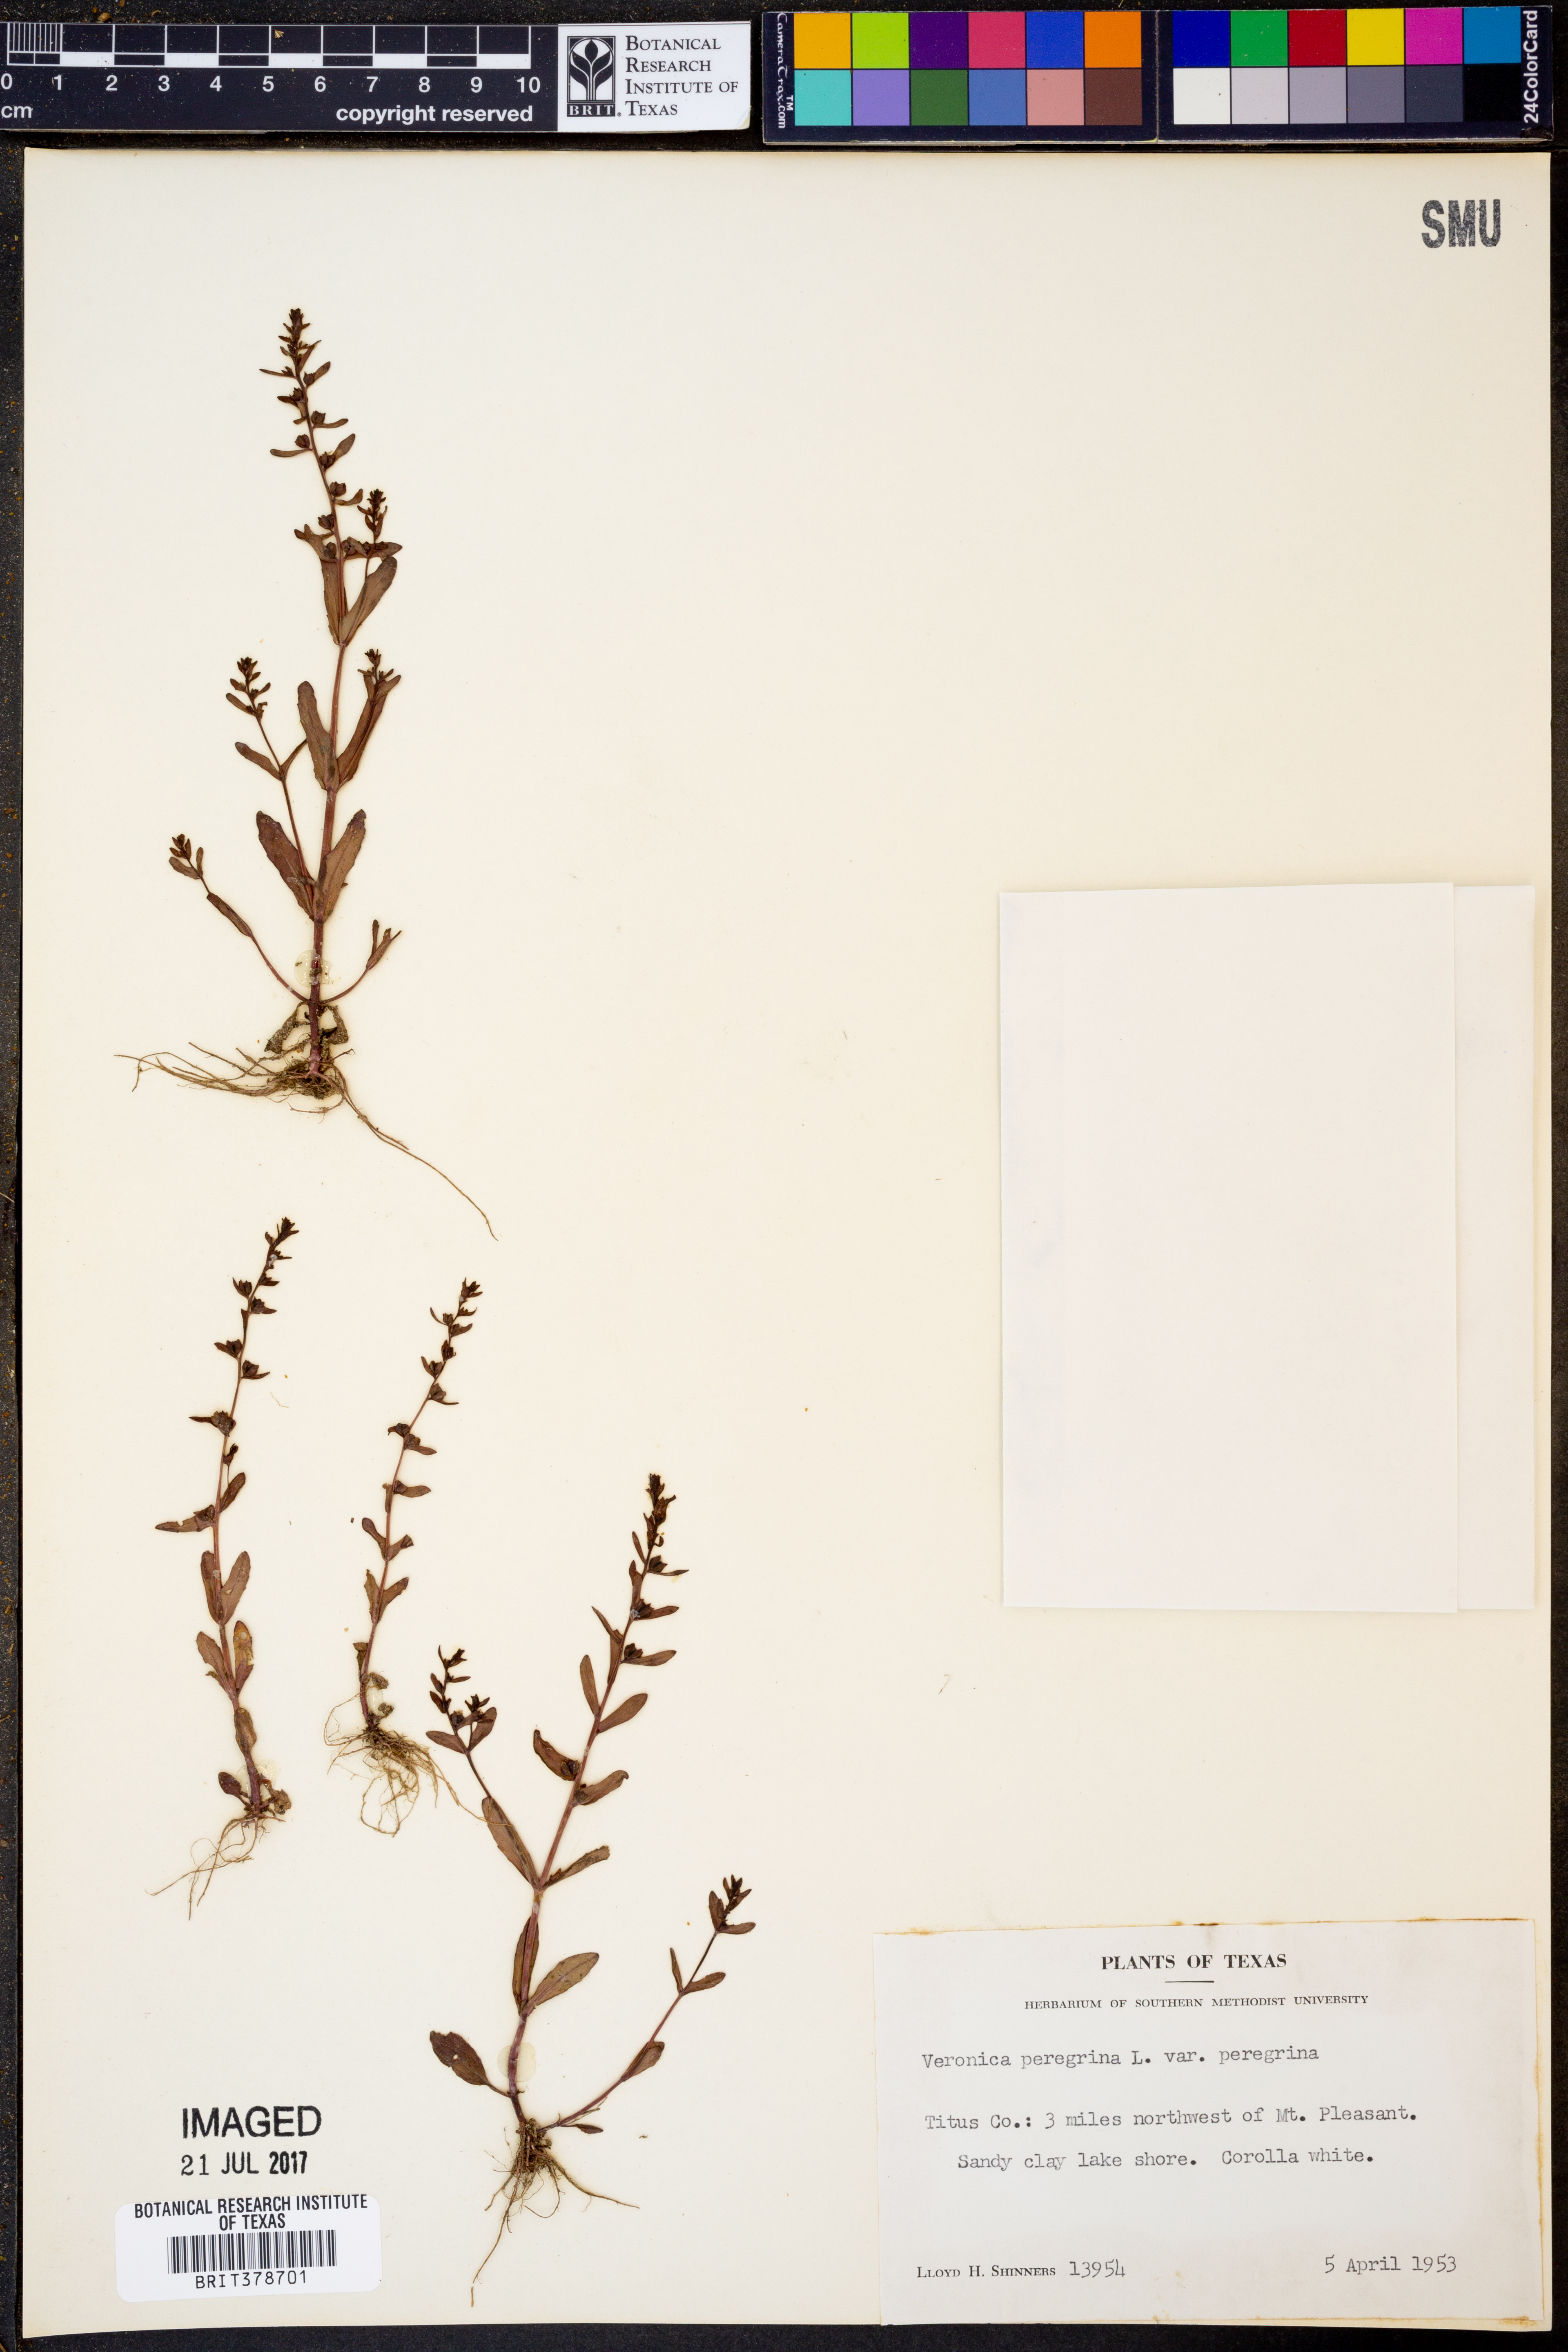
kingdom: Plantae
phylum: Tracheophyta
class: Magnoliopsida
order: Lamiales
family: Plantaginaceae
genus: Veronica
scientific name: Veronica peregrina
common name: Neckweed
